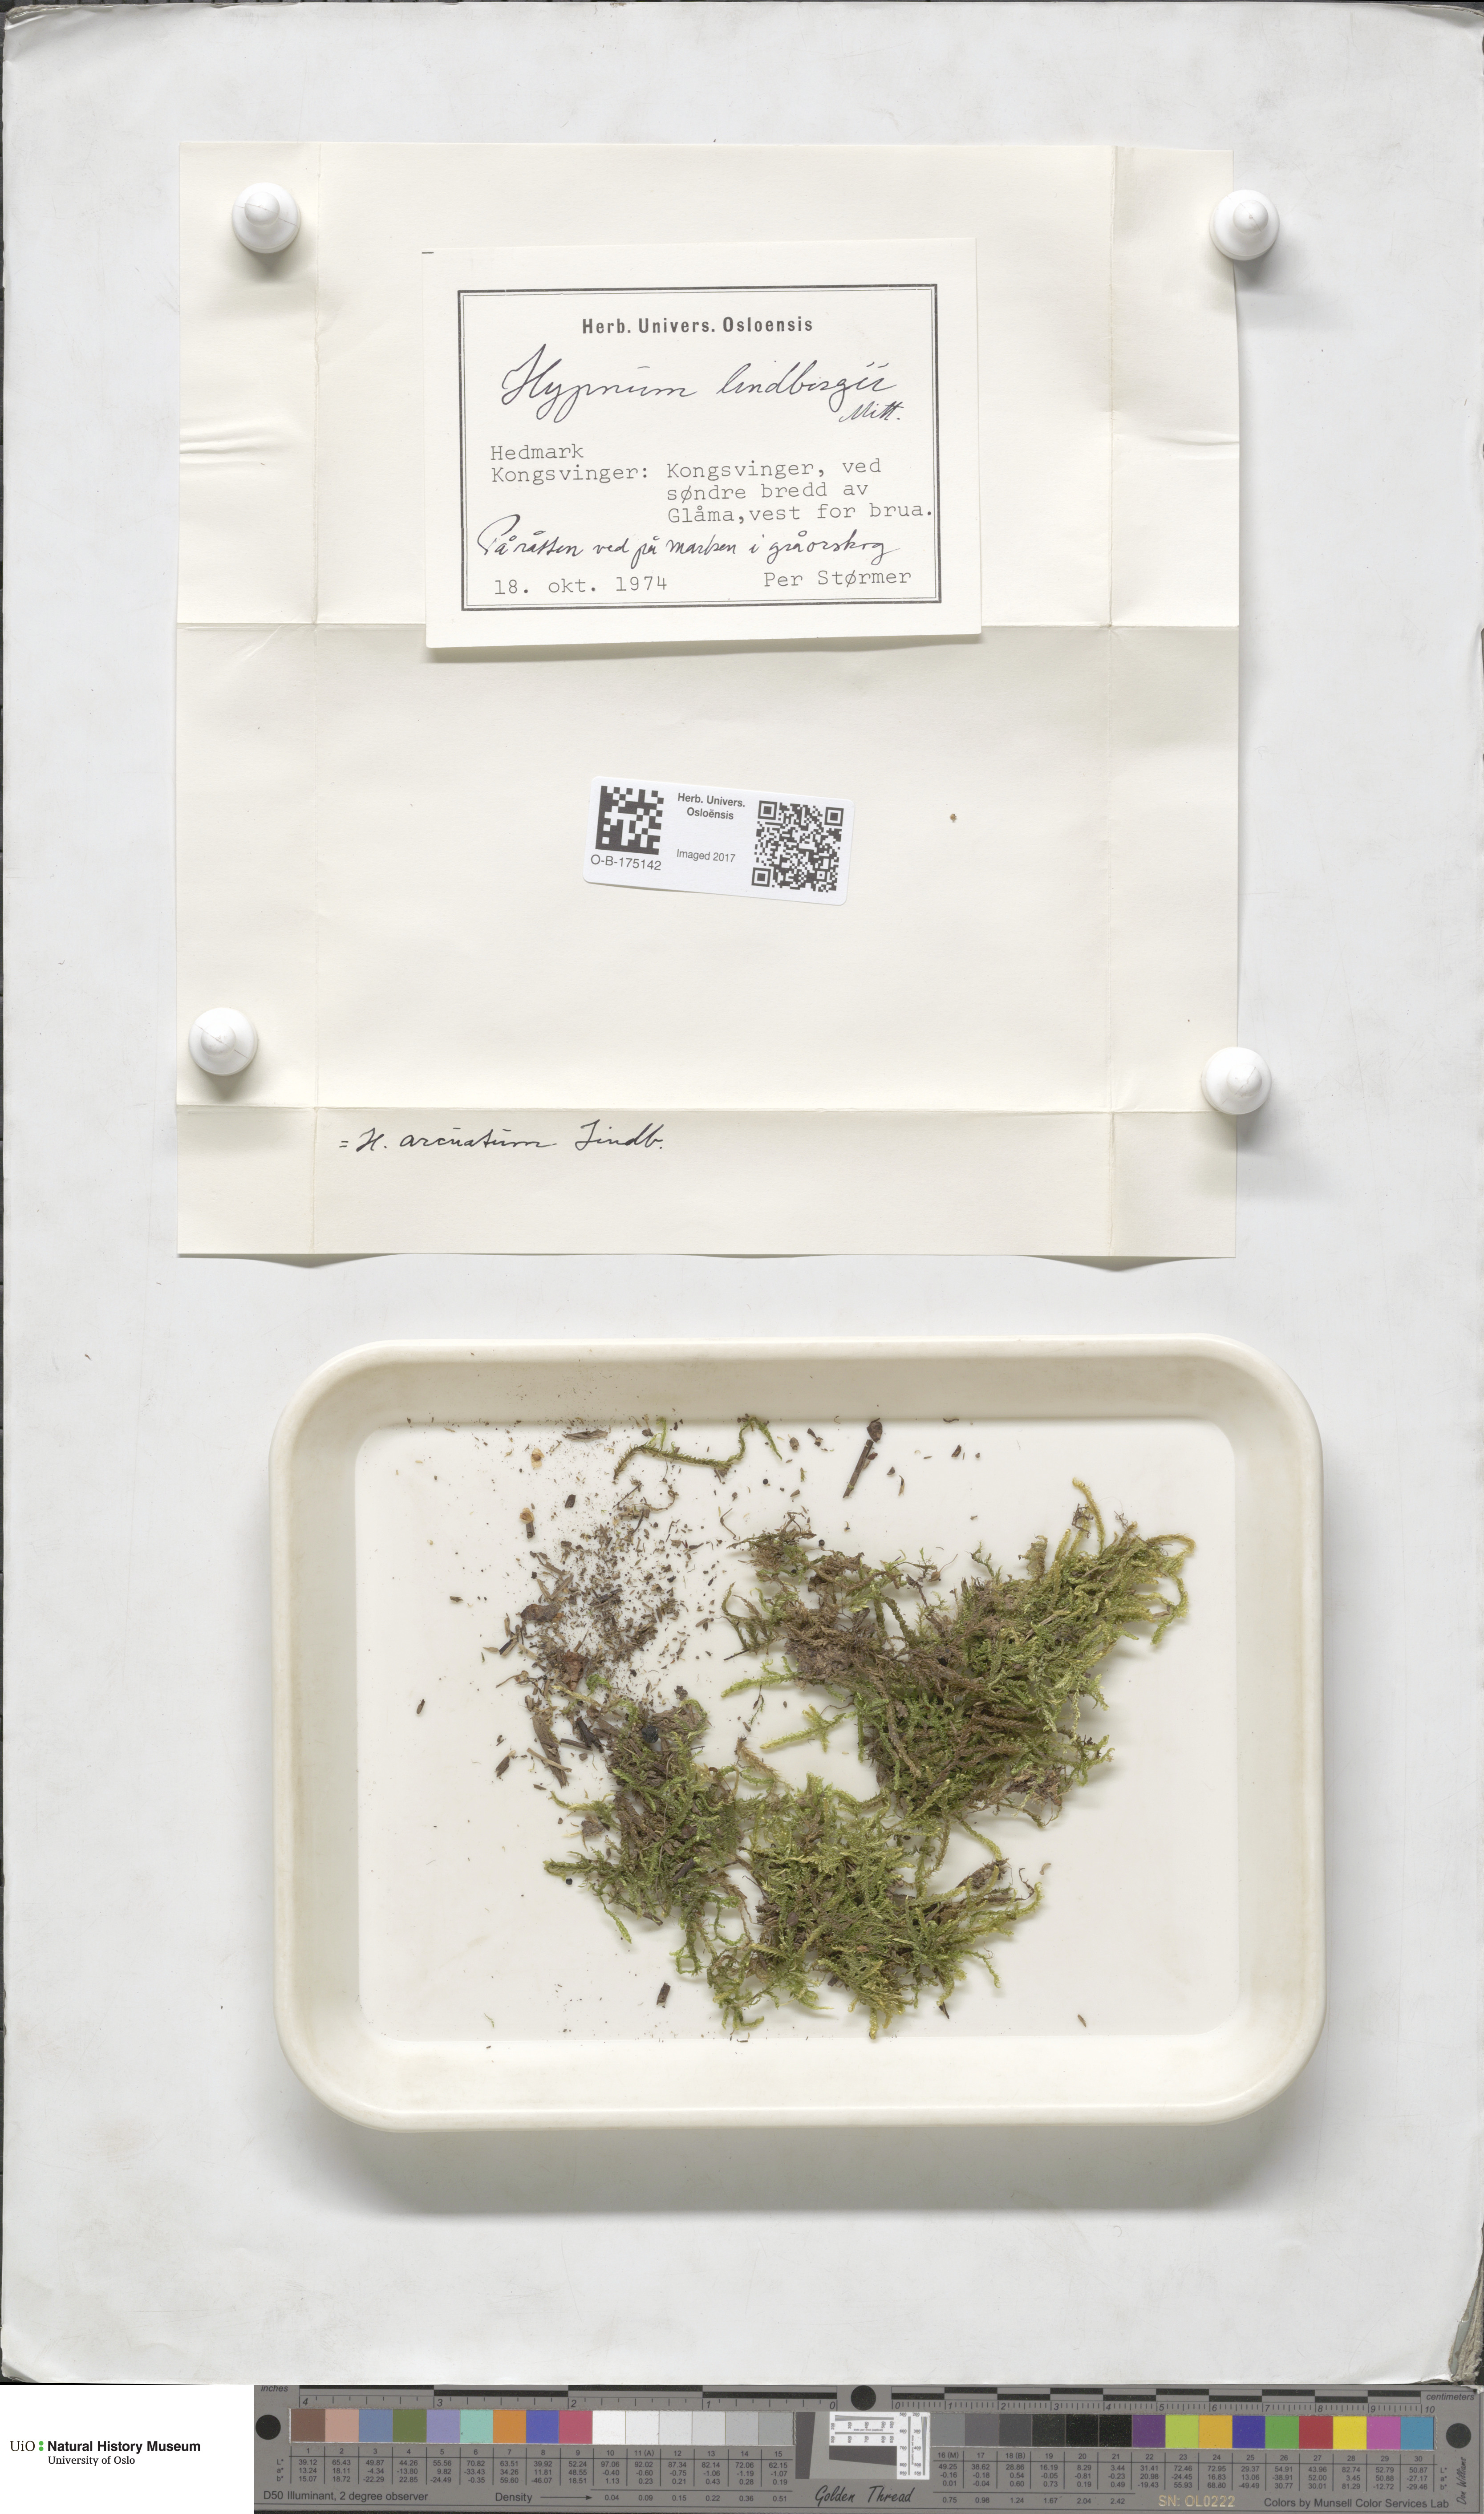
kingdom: Plantae
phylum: Bryophyta
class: Bryopsida
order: Hypnales
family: Pylaisiaceae
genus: Calliergonella
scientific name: Calliergonella lindbergii
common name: Lindberg's plait-moss
